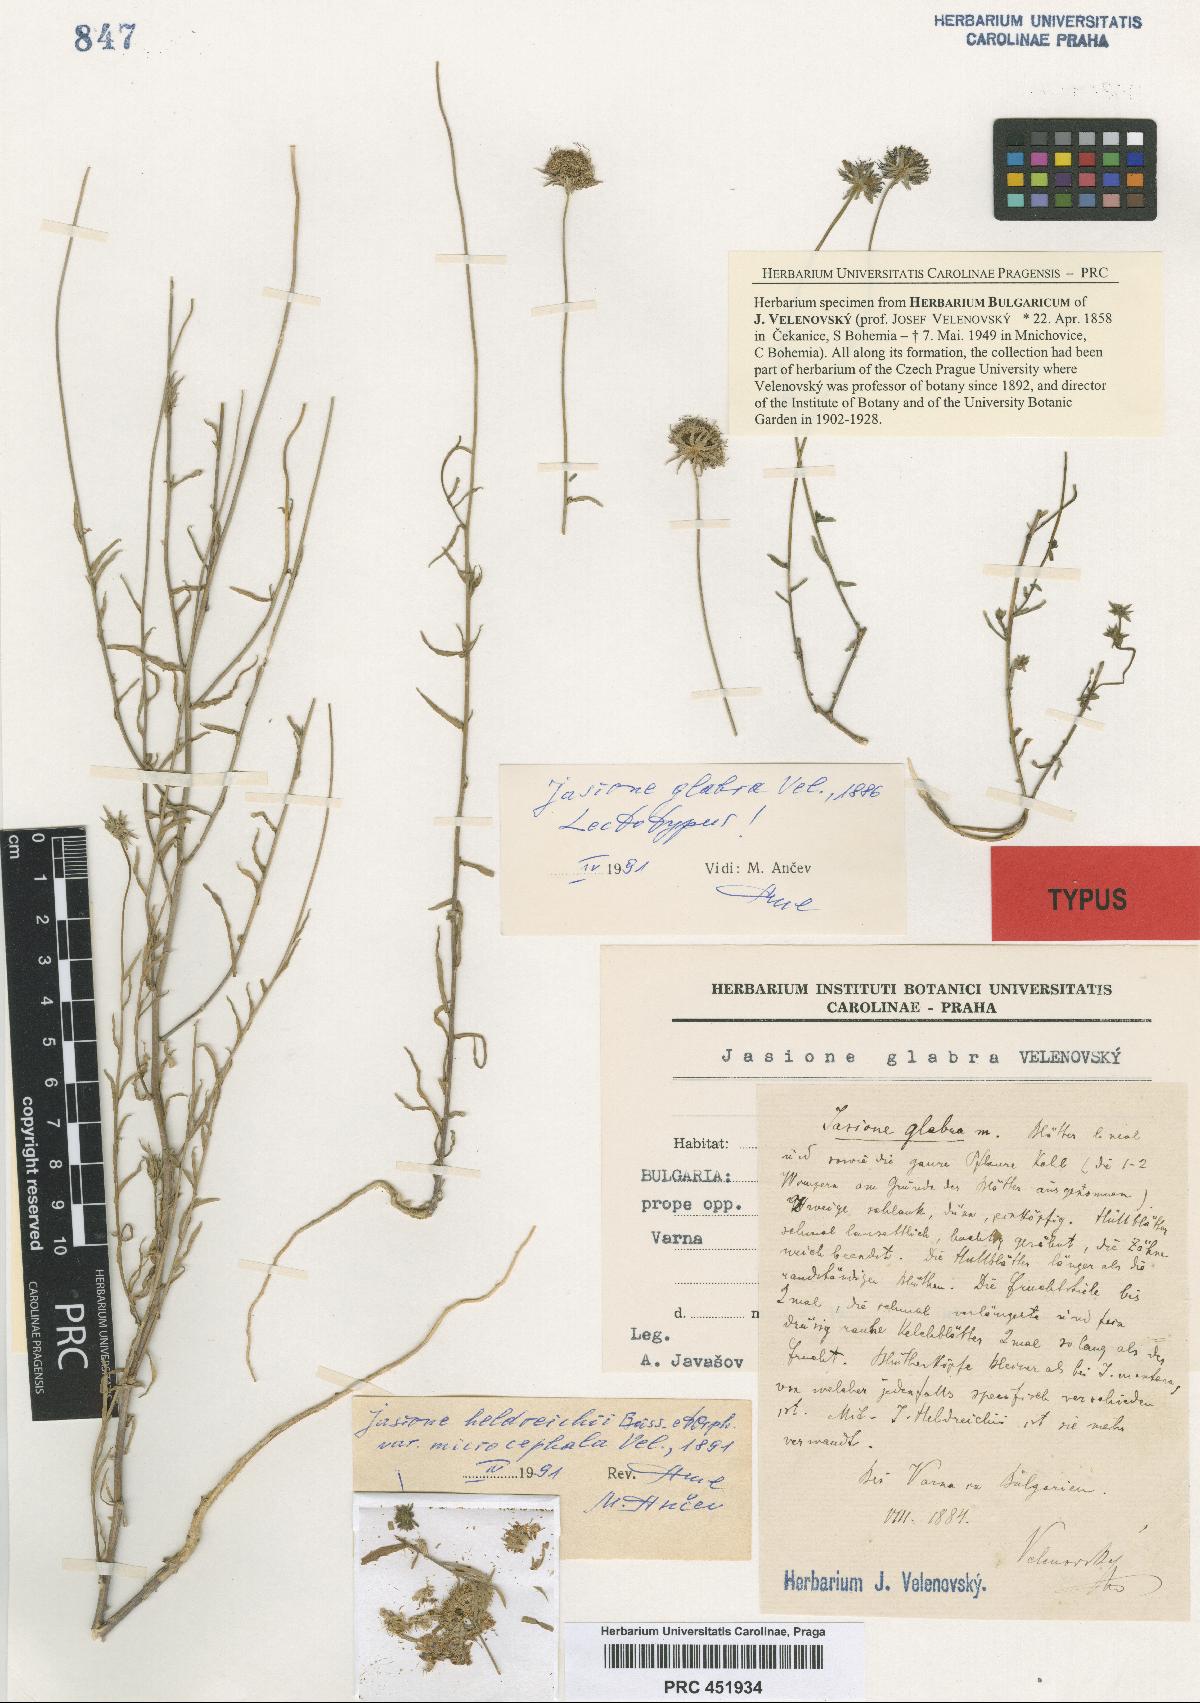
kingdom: Plantae
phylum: Tracheophyta
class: Magnoliopsida
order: Asterales
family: Campanulaceae
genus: Jasione
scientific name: Jasione heldreichii
